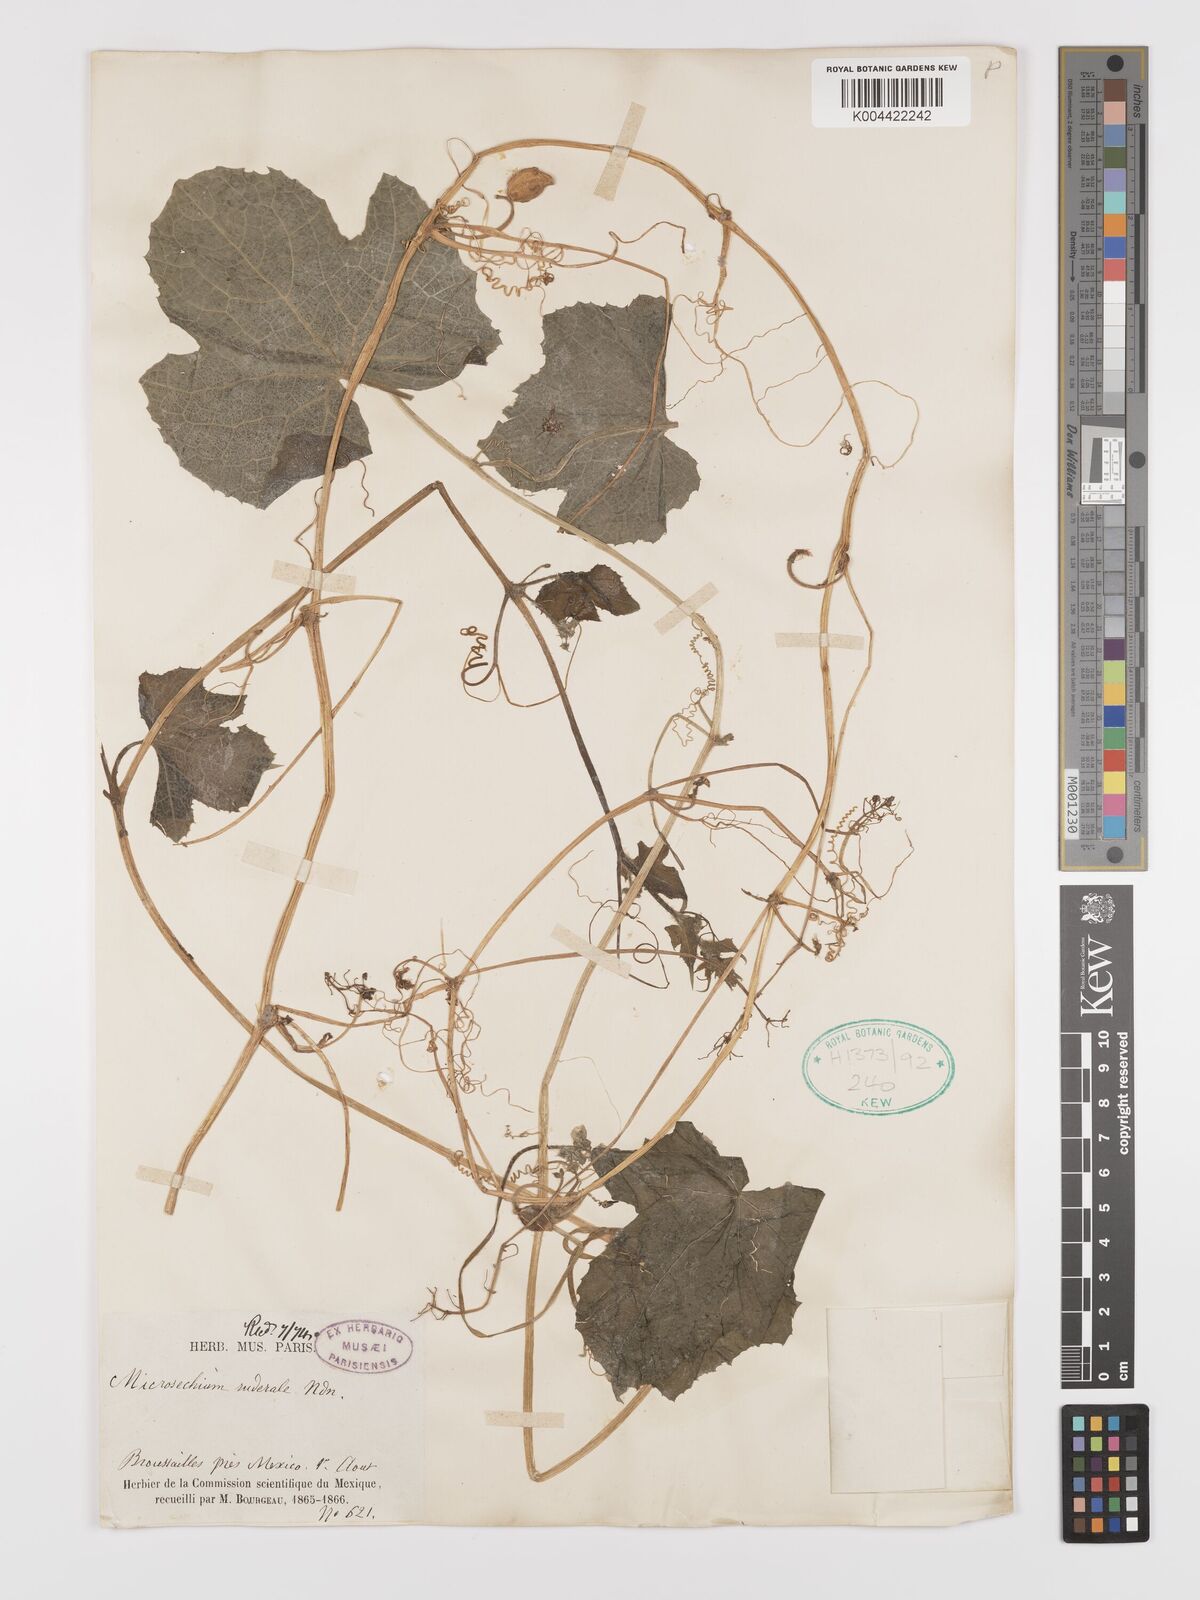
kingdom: Plantae
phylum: Tracheophyta
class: Magnoliopsida
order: Cucurbitales
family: Cucurbitaceae
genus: Microsechium
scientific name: Microsechium palmatum
